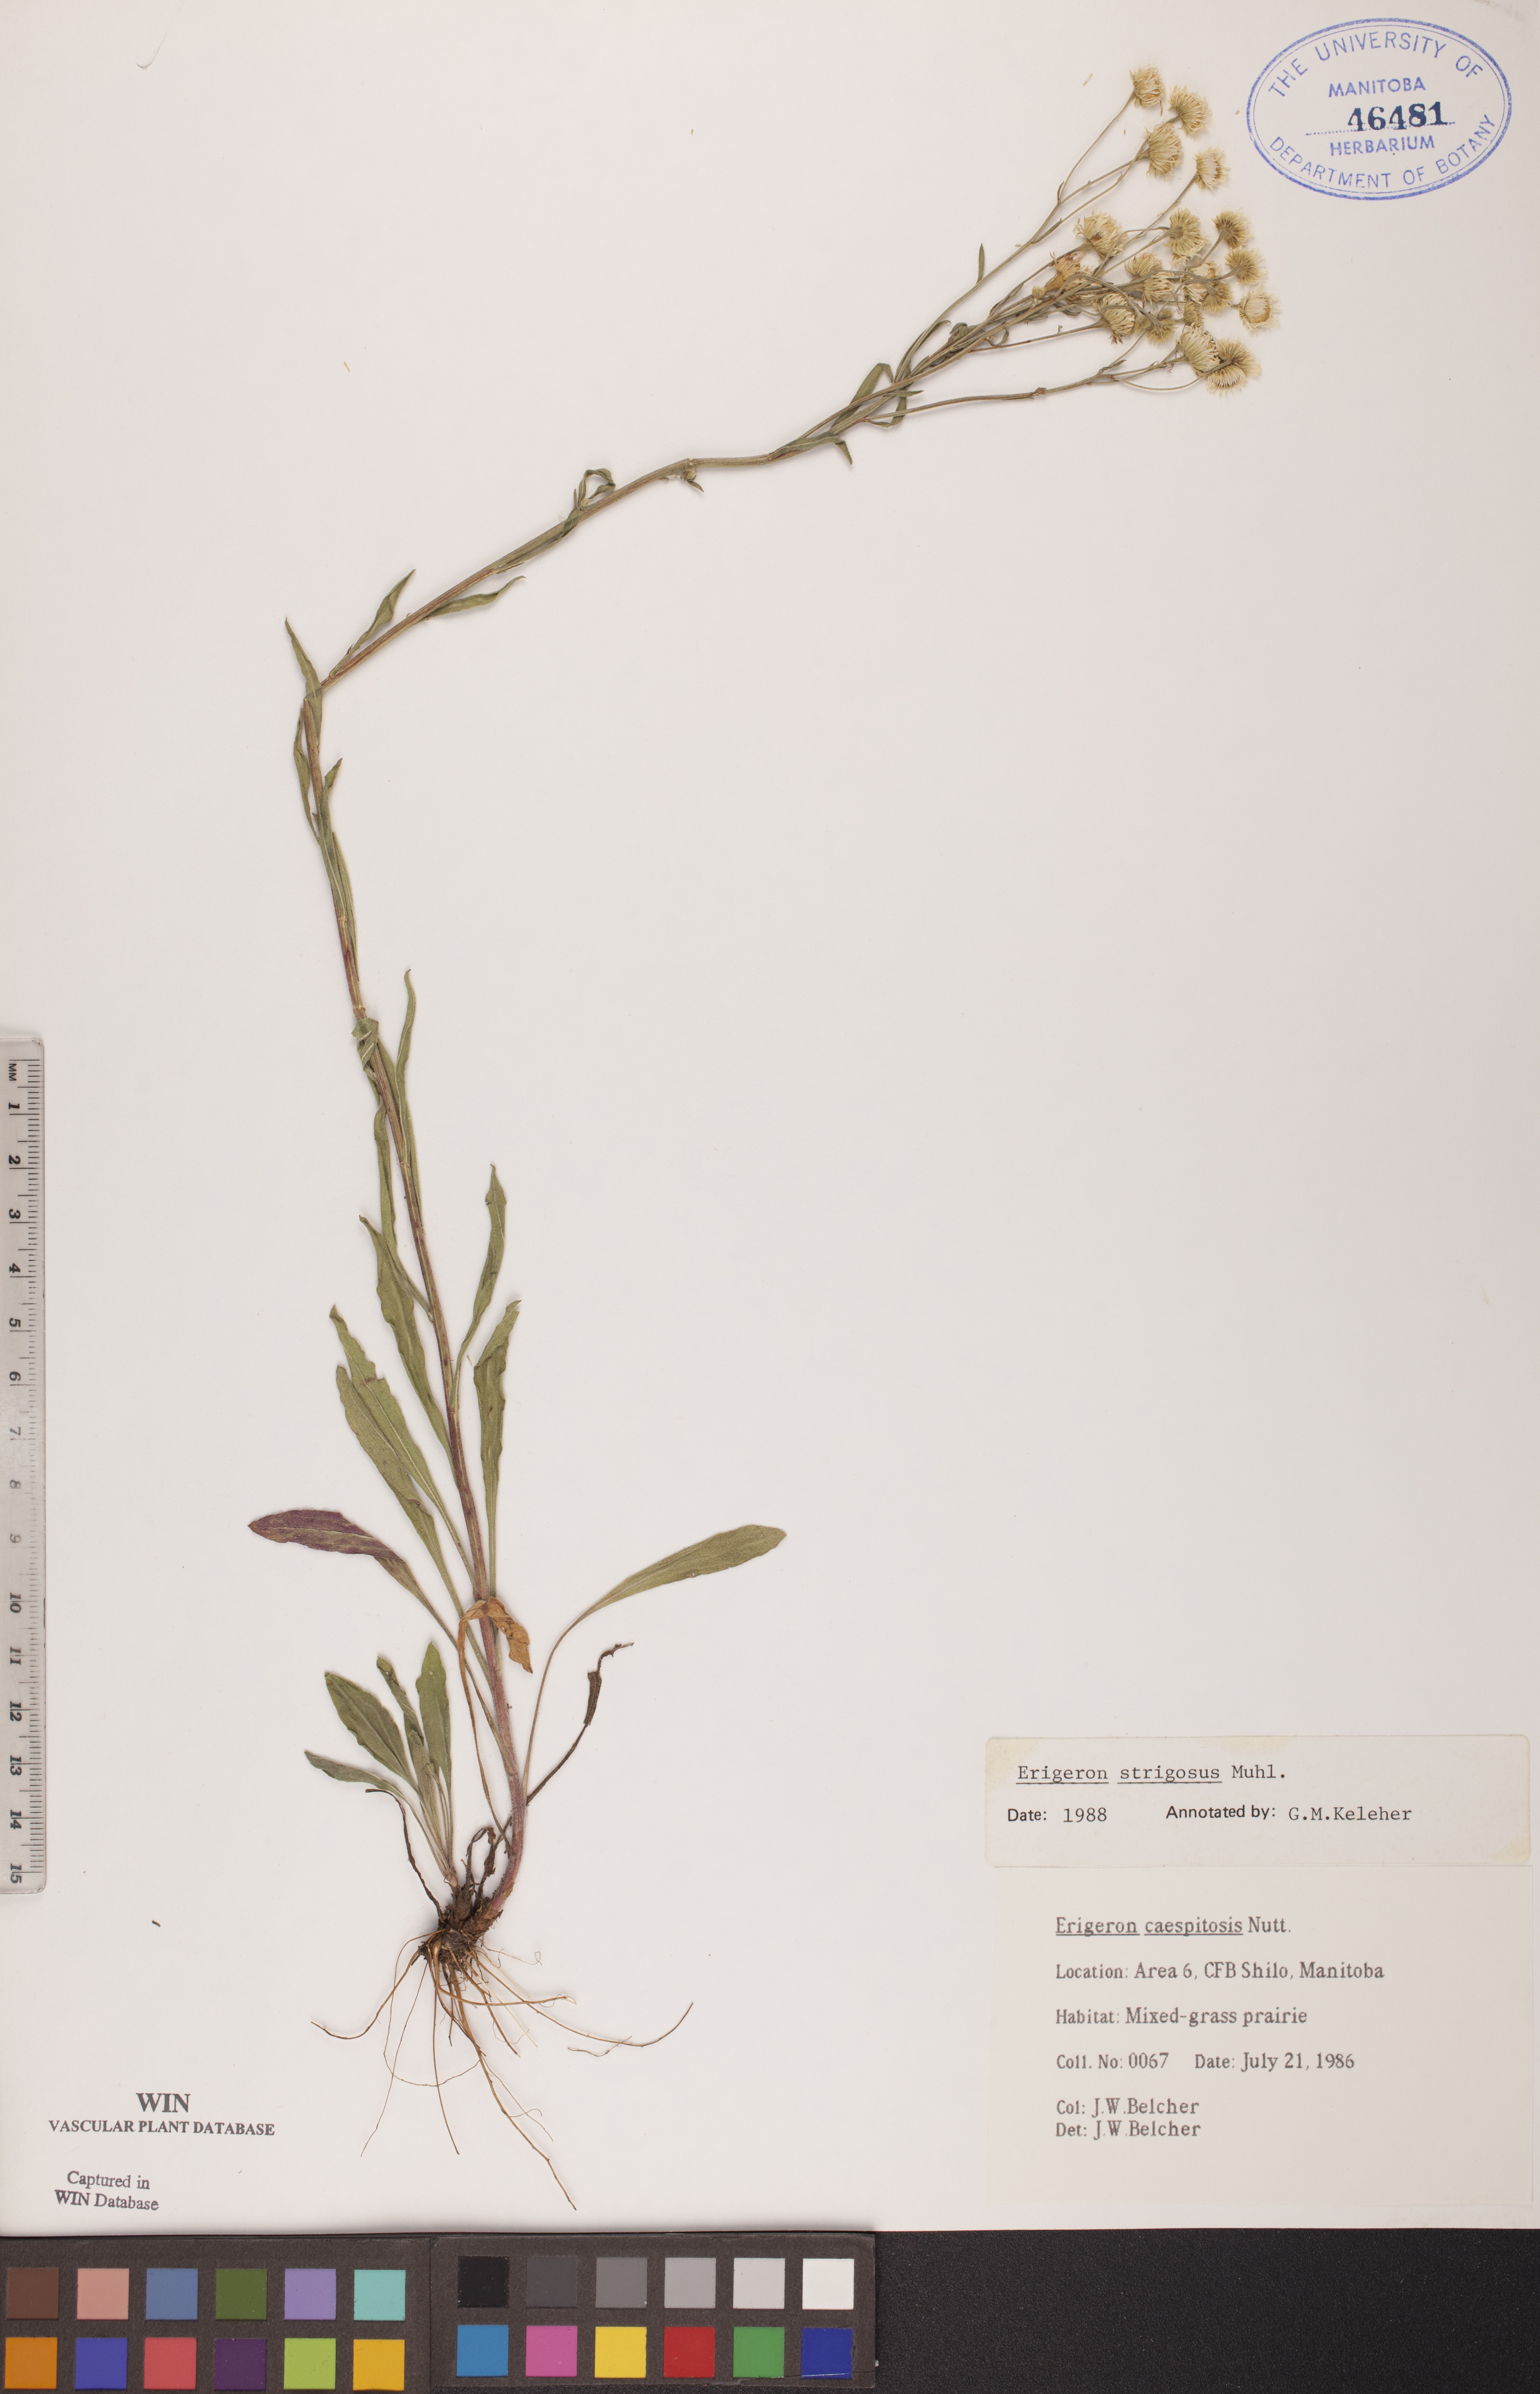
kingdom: Plantae
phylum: Tracheophyta
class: Magnoliopsida
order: Asterales
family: Asteraceae
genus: Erigeron
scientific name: Erigeron strigosus
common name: Common eastern fleabane
